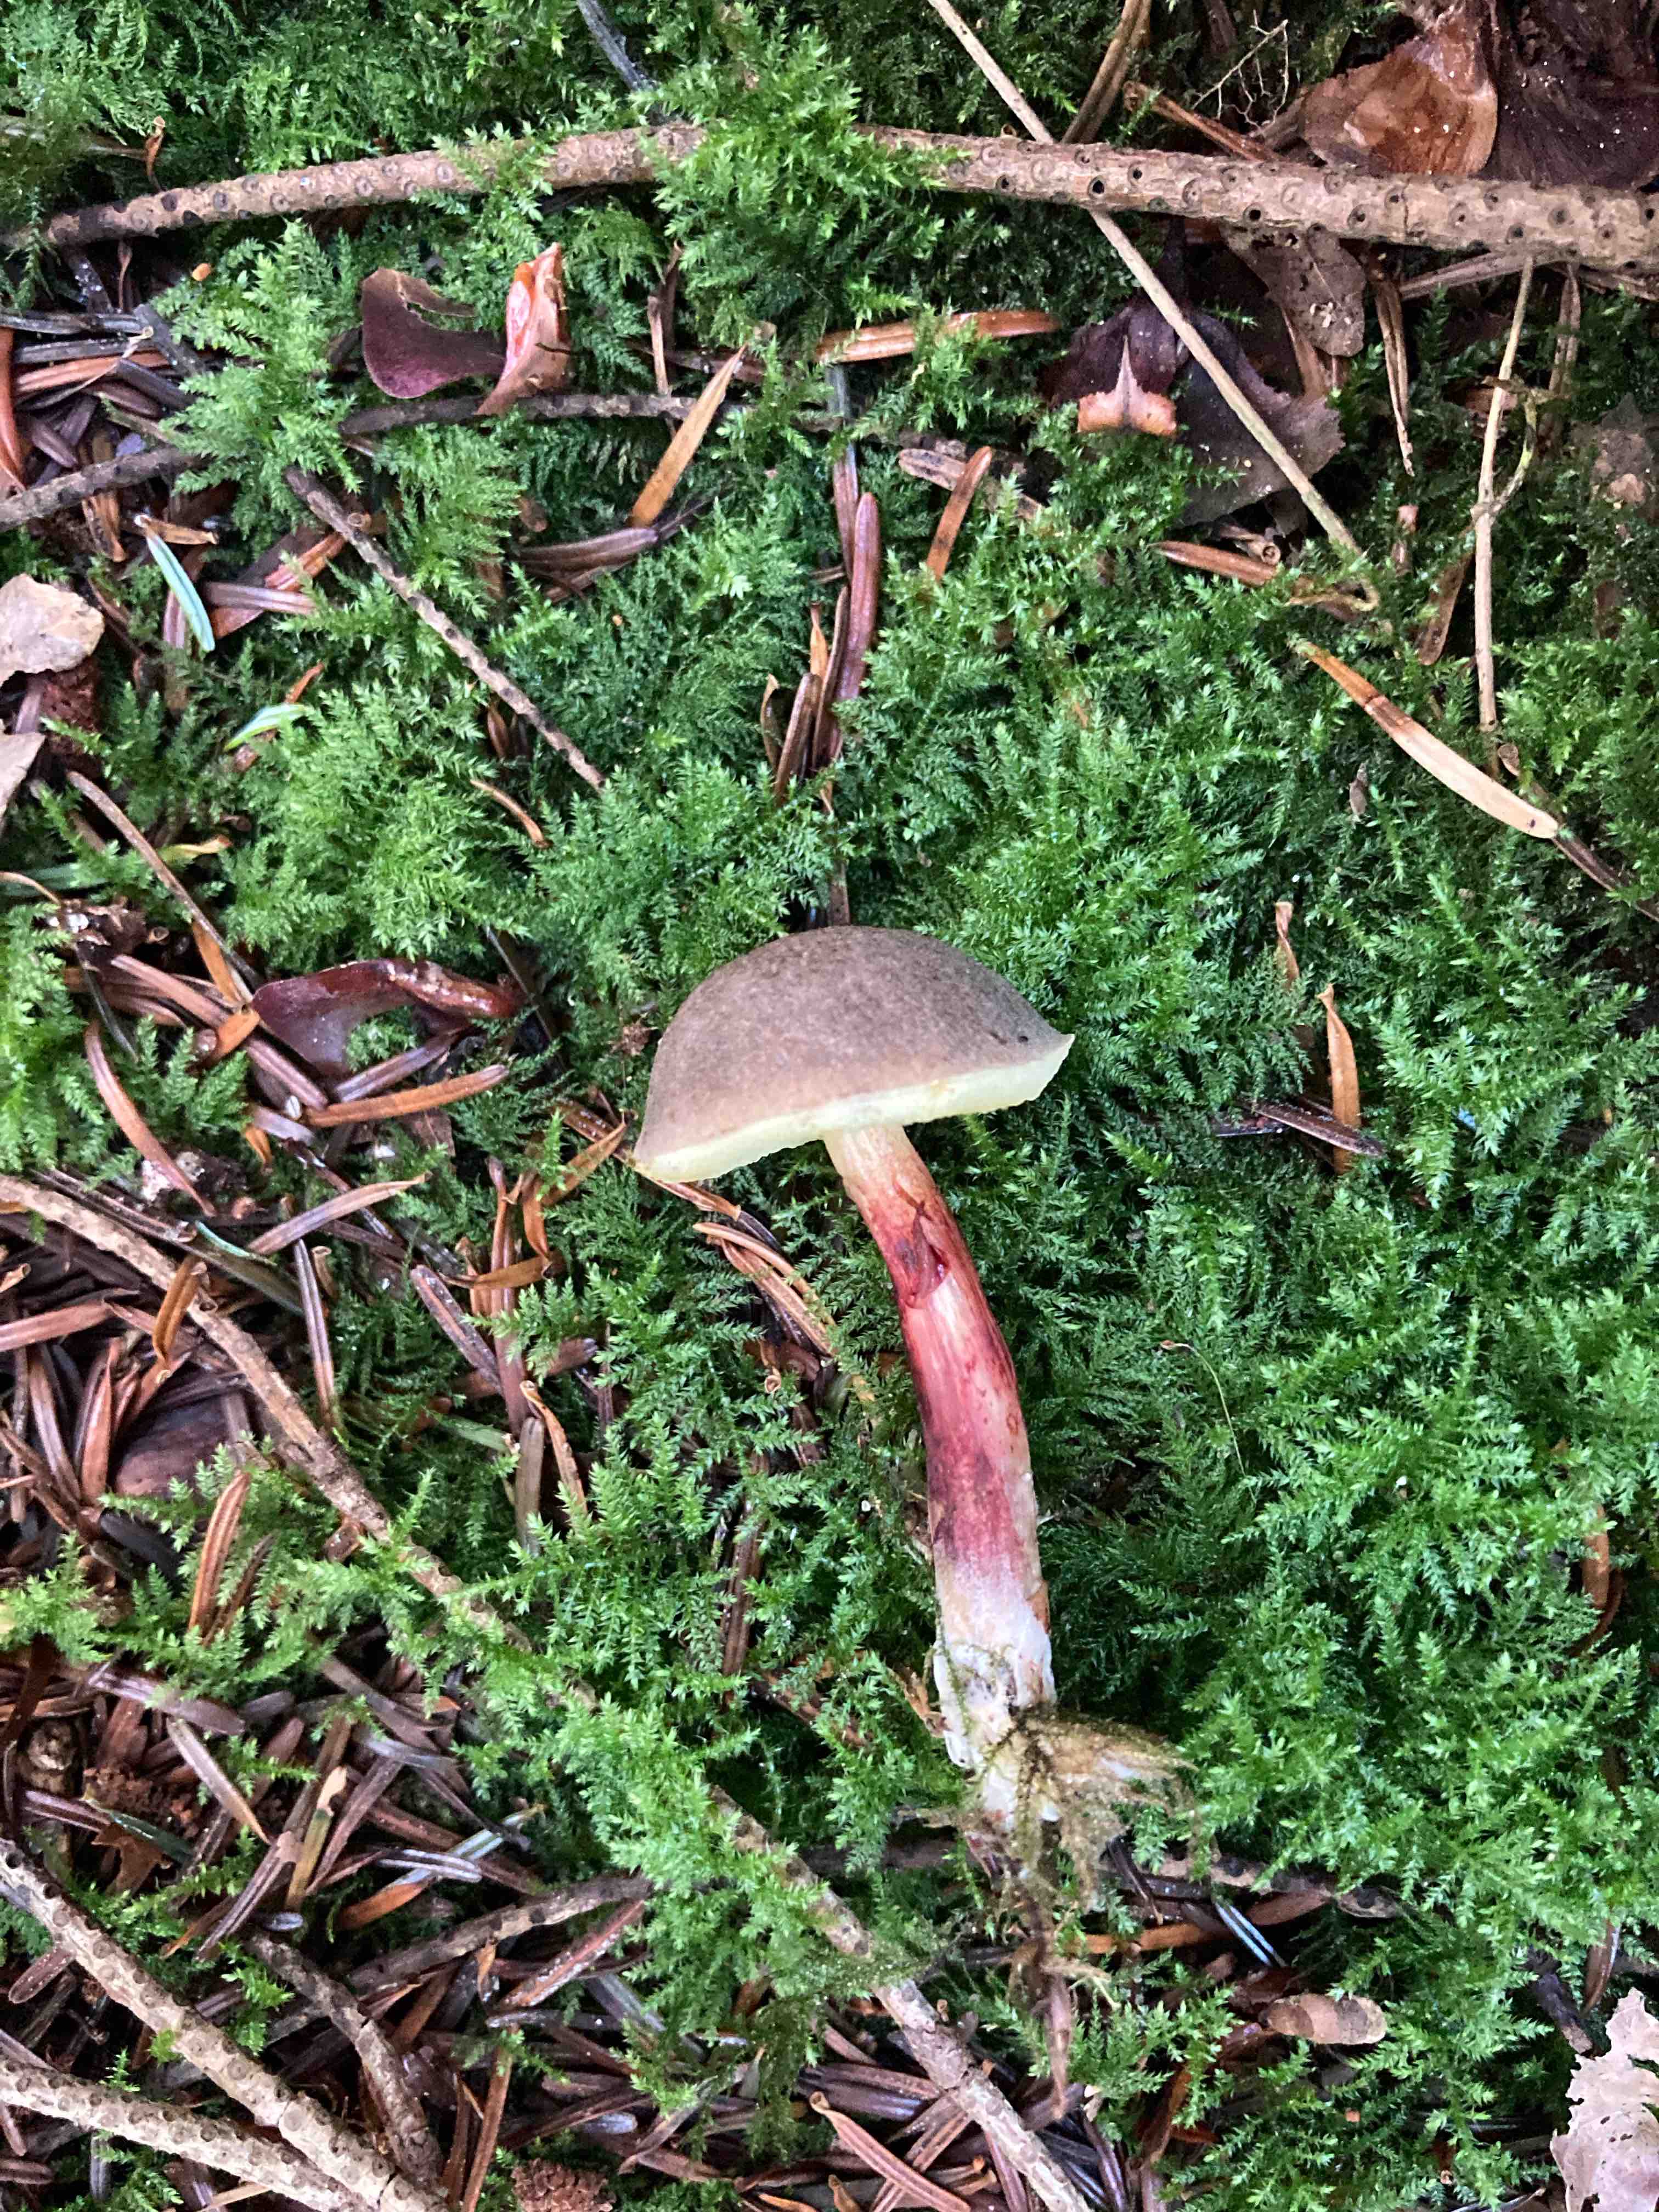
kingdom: Fungi
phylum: Basidiomycota
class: Agaricomycetes
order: Boletales
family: Boletaceae
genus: Xerocomellus
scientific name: Xerocomellus
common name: dværgrørhat
